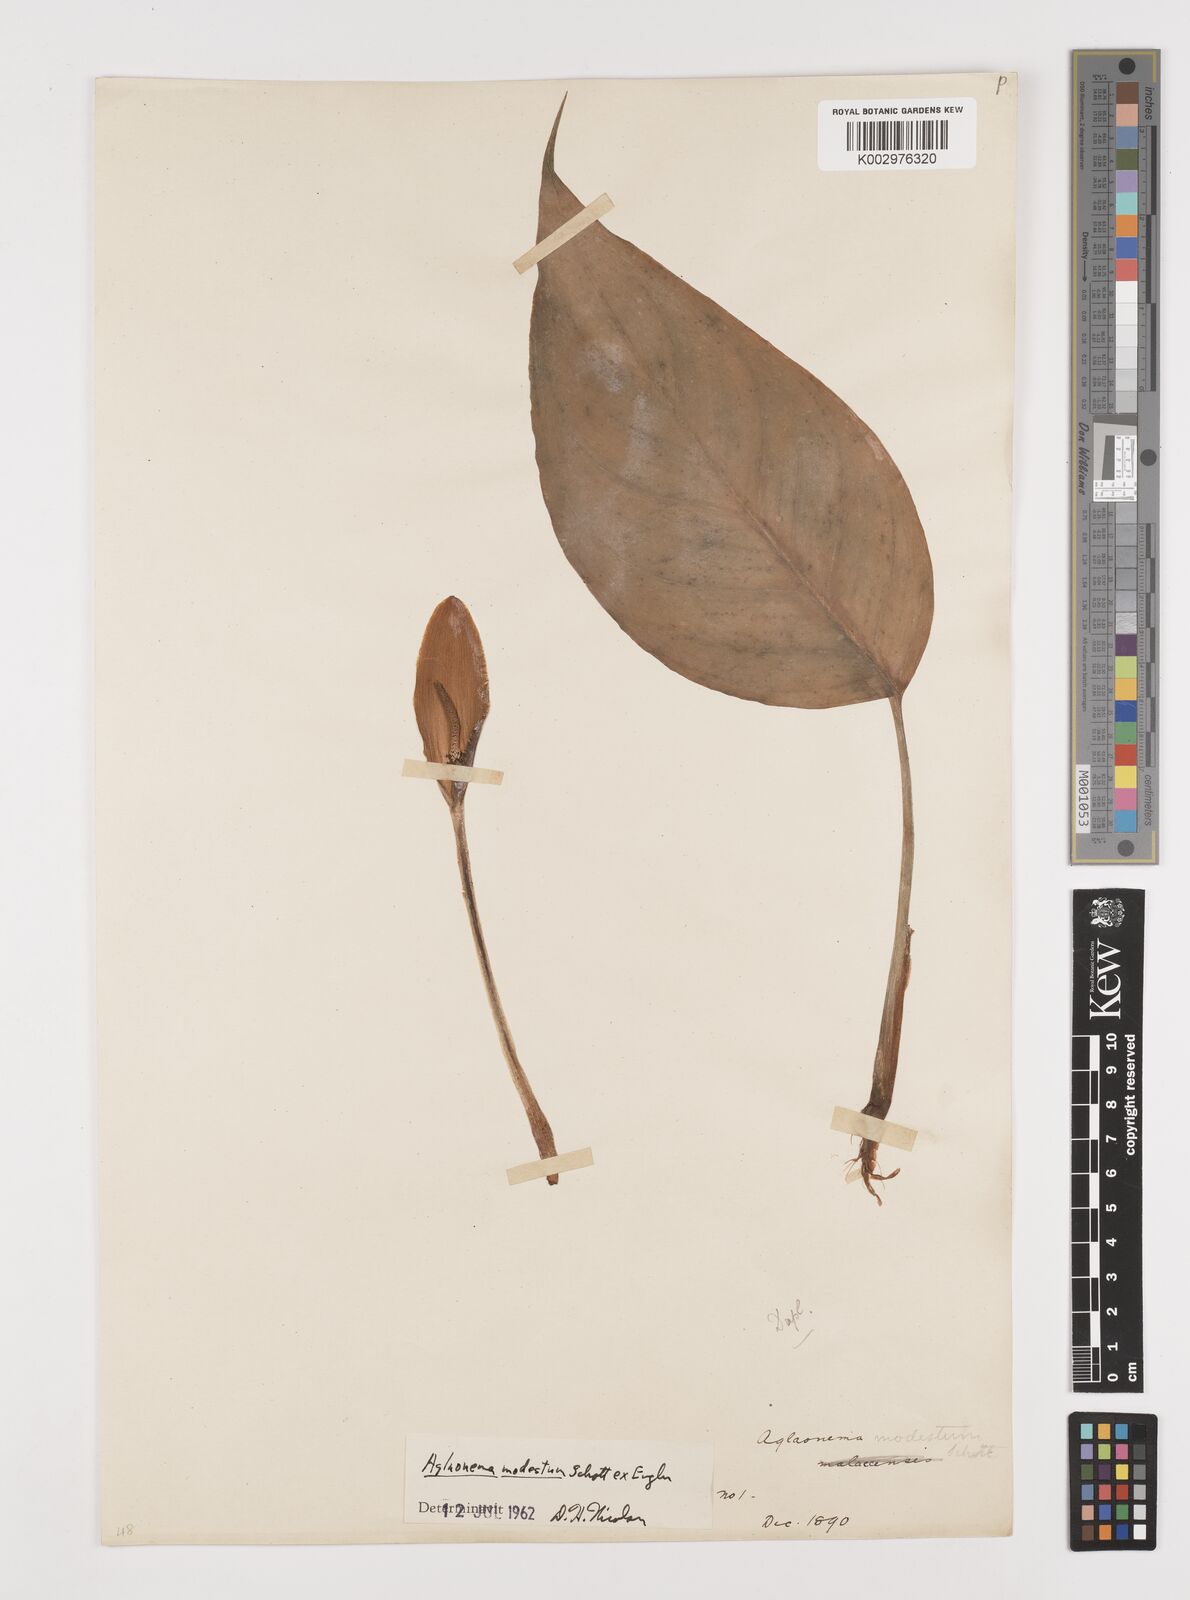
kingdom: Plantae
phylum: Tracheophyta
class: Liliopsida
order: Alismatales
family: Araceae
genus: Aglaonema
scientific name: Aglaonema modestum
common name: Chinese evergreen
